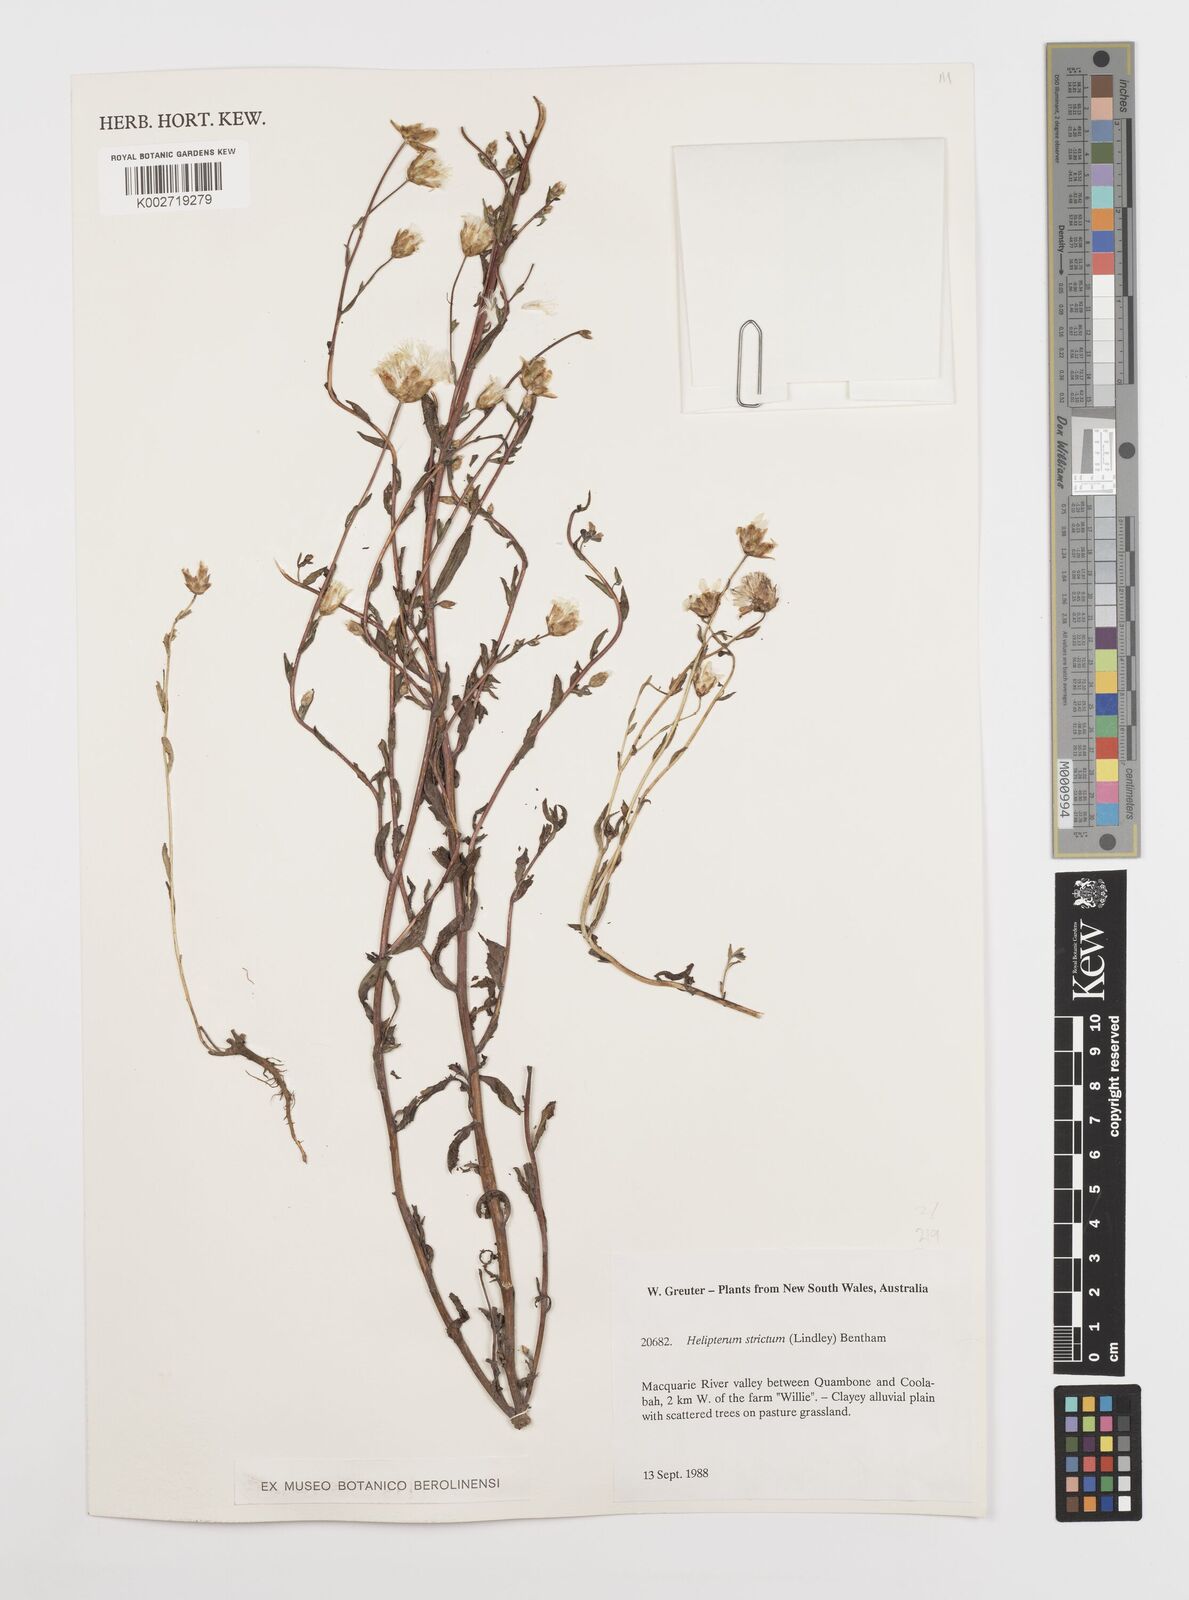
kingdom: Plantae
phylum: Tracheophyta
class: Magnoliopsida
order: Asterales
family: Asteraceae
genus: Rhodanthe
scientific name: Rhodanthe stricta
